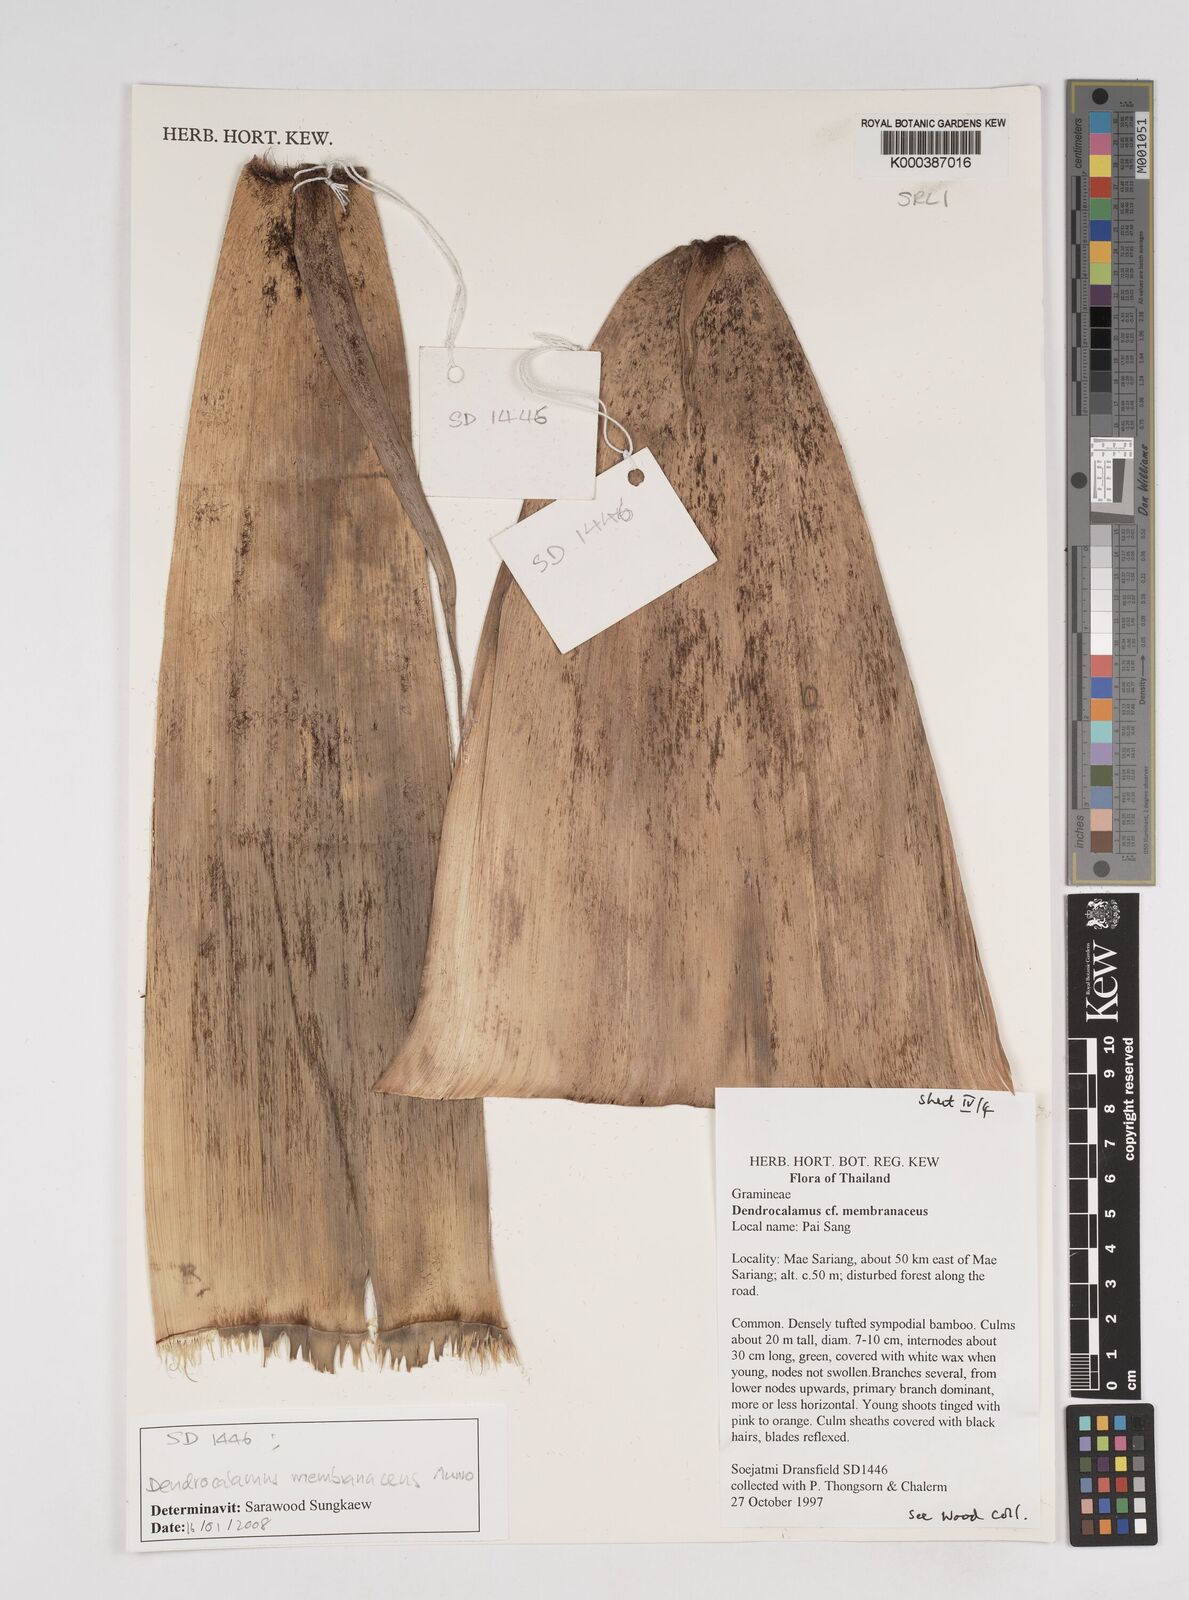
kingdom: Plantae
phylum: Tracheophyta
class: Liliopsida
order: Poales
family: Poaceae
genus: Dendrocalamus
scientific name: Dendrocalamus membranaceus
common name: White bamboo
